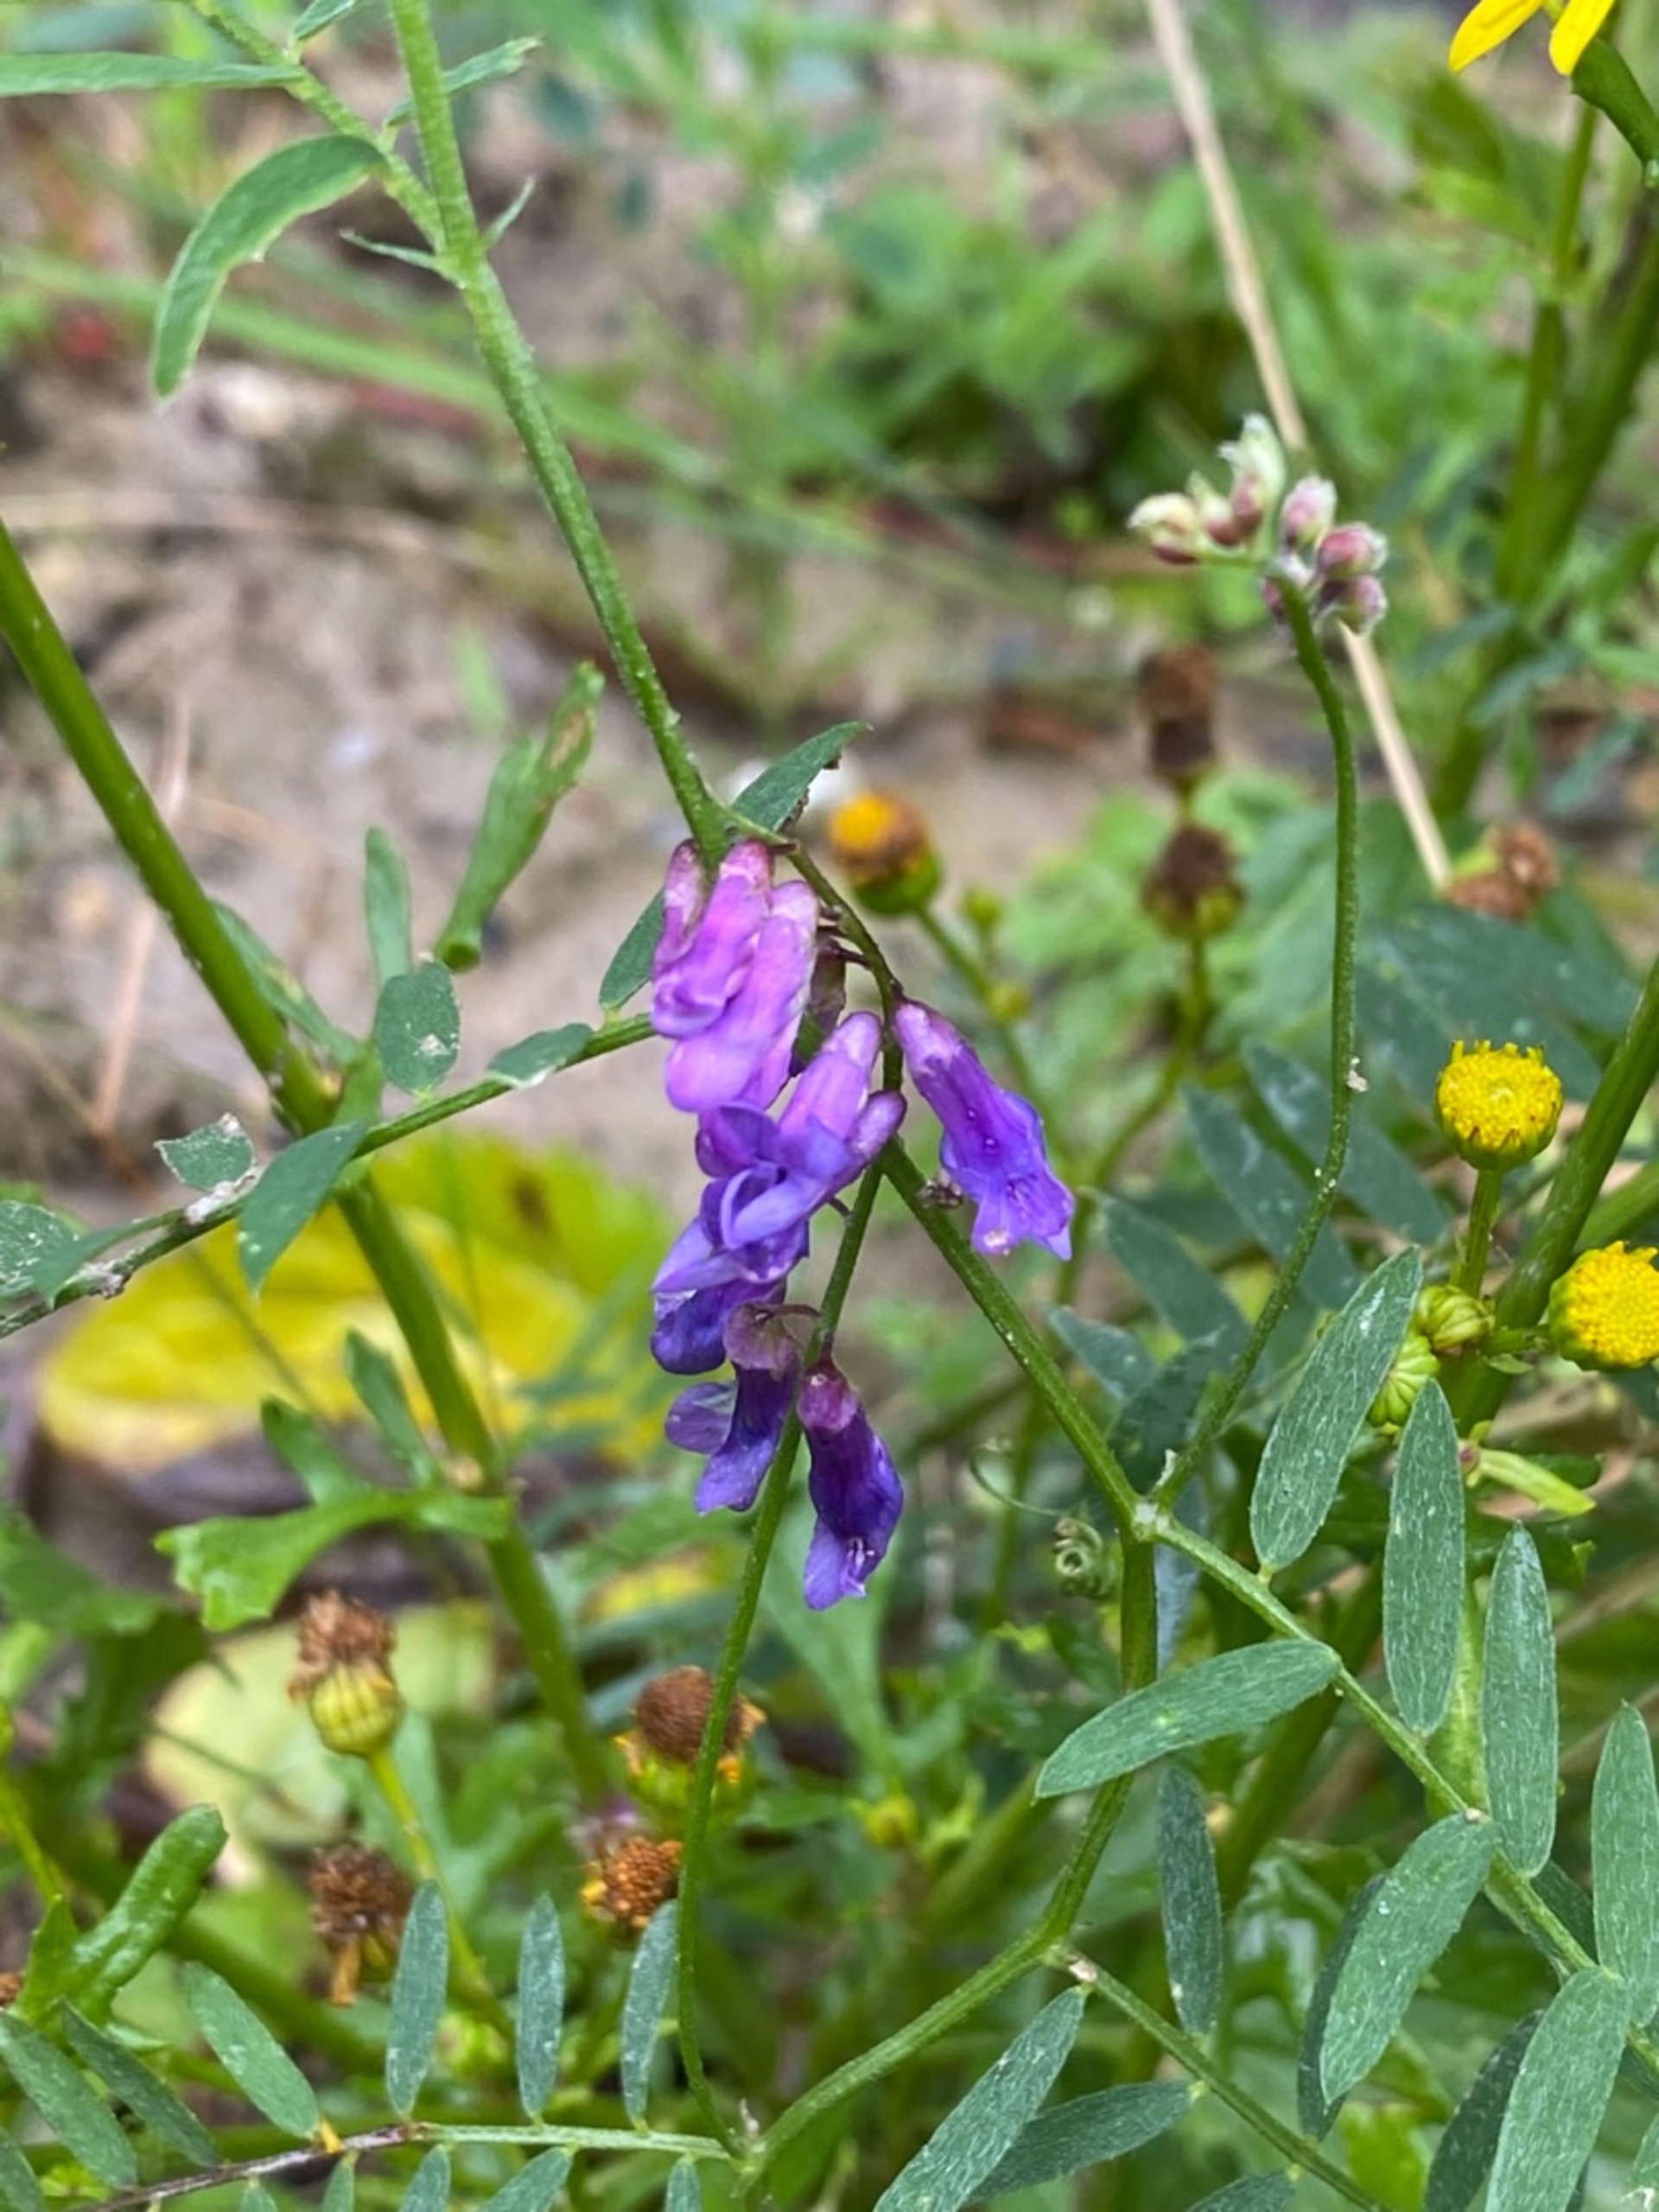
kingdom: Plantae
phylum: Tracheophyta
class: Magnoliopsida
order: Fabales
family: Fabaceae
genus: Vicia
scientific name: Vicia cracca
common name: Muse-vikke
